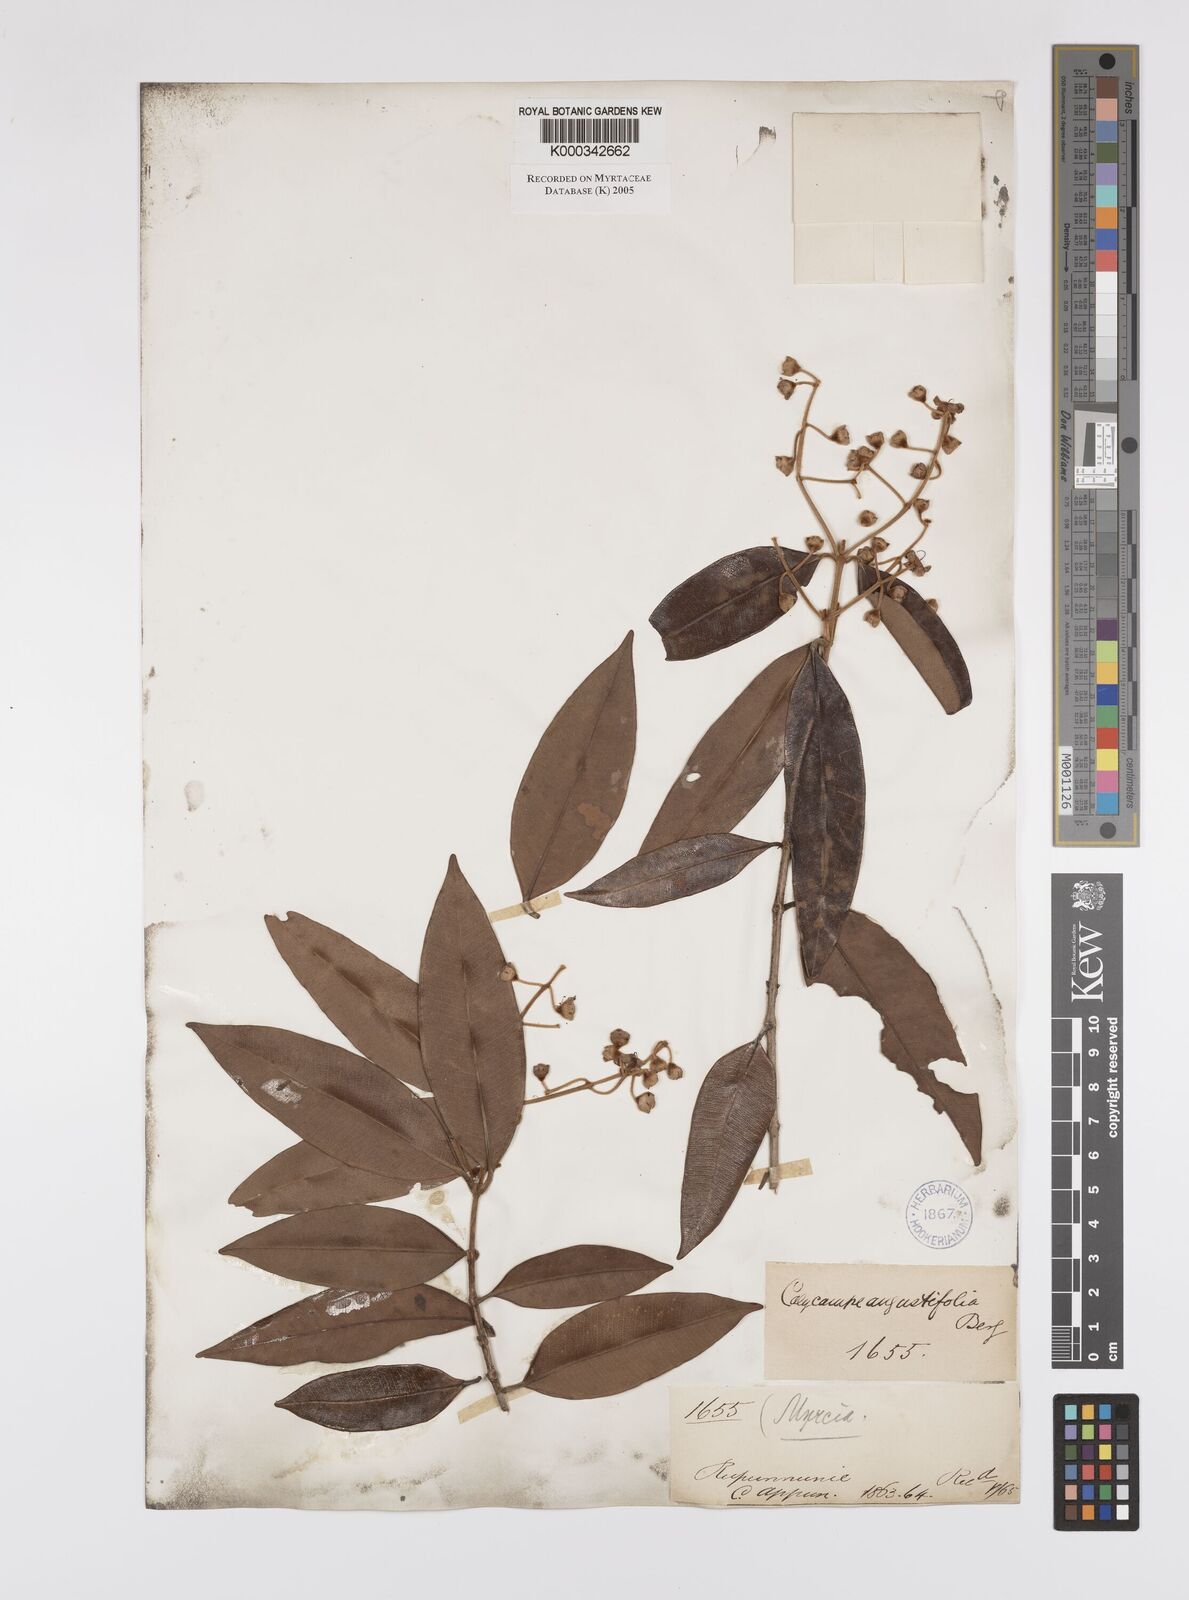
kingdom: Plantae
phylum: Tracheophyta
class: Magnoliopsida
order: Myrtales
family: Myrtaceae
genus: Myrcia
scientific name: Myrcia calycampa
